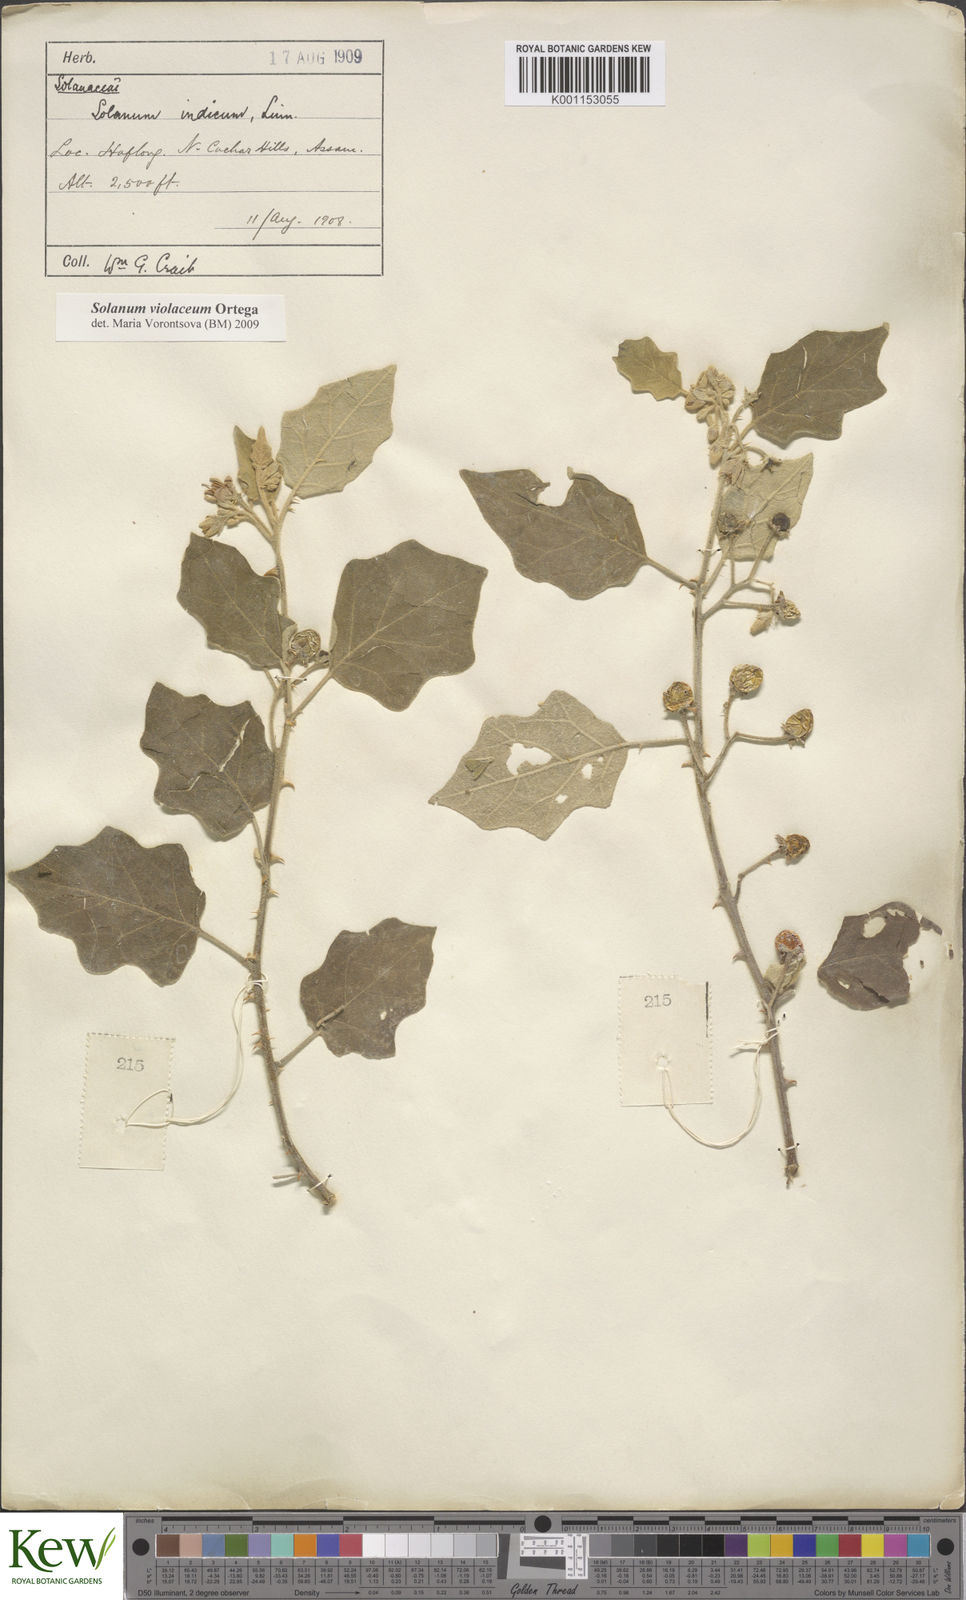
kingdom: Plantae
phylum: Tracheophyta
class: Magnoliopsida
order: Solanales
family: Solanaceae
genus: Solanum
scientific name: Solanum violaceum
